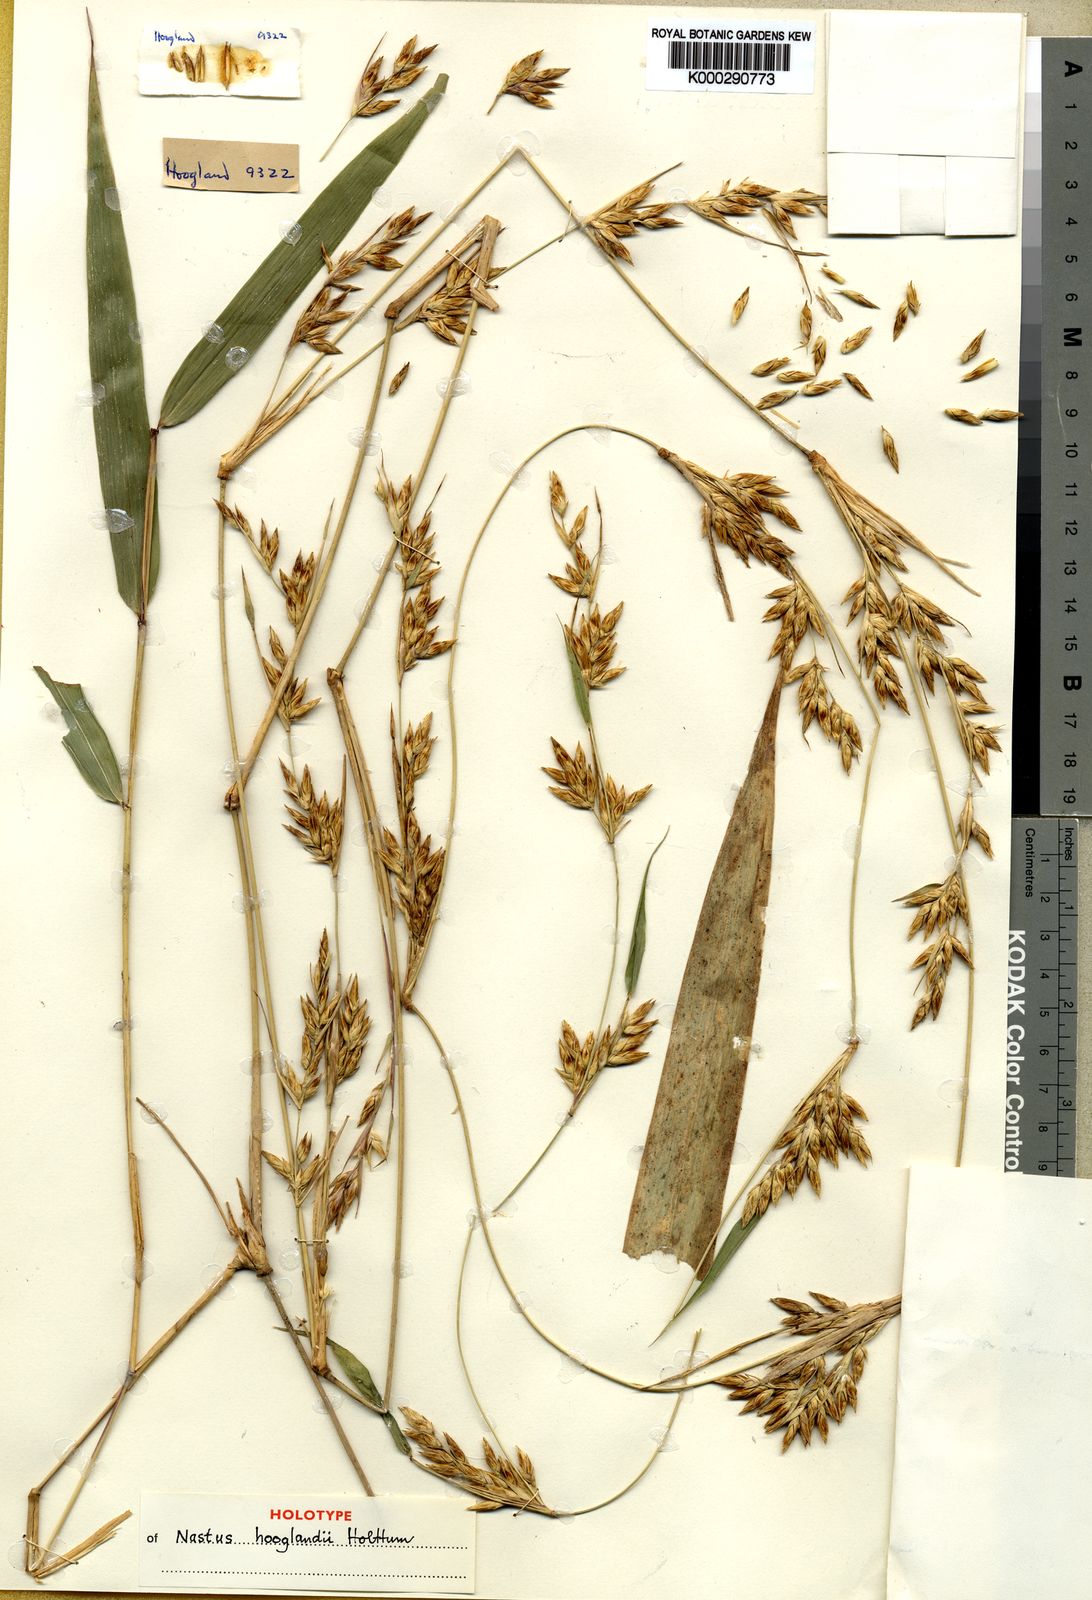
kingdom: Plantae
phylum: Tracheophyta
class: Liliopsida
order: Poales
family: Poaceae
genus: Ruhooglandia
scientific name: Ruhooglandia hooglandii
